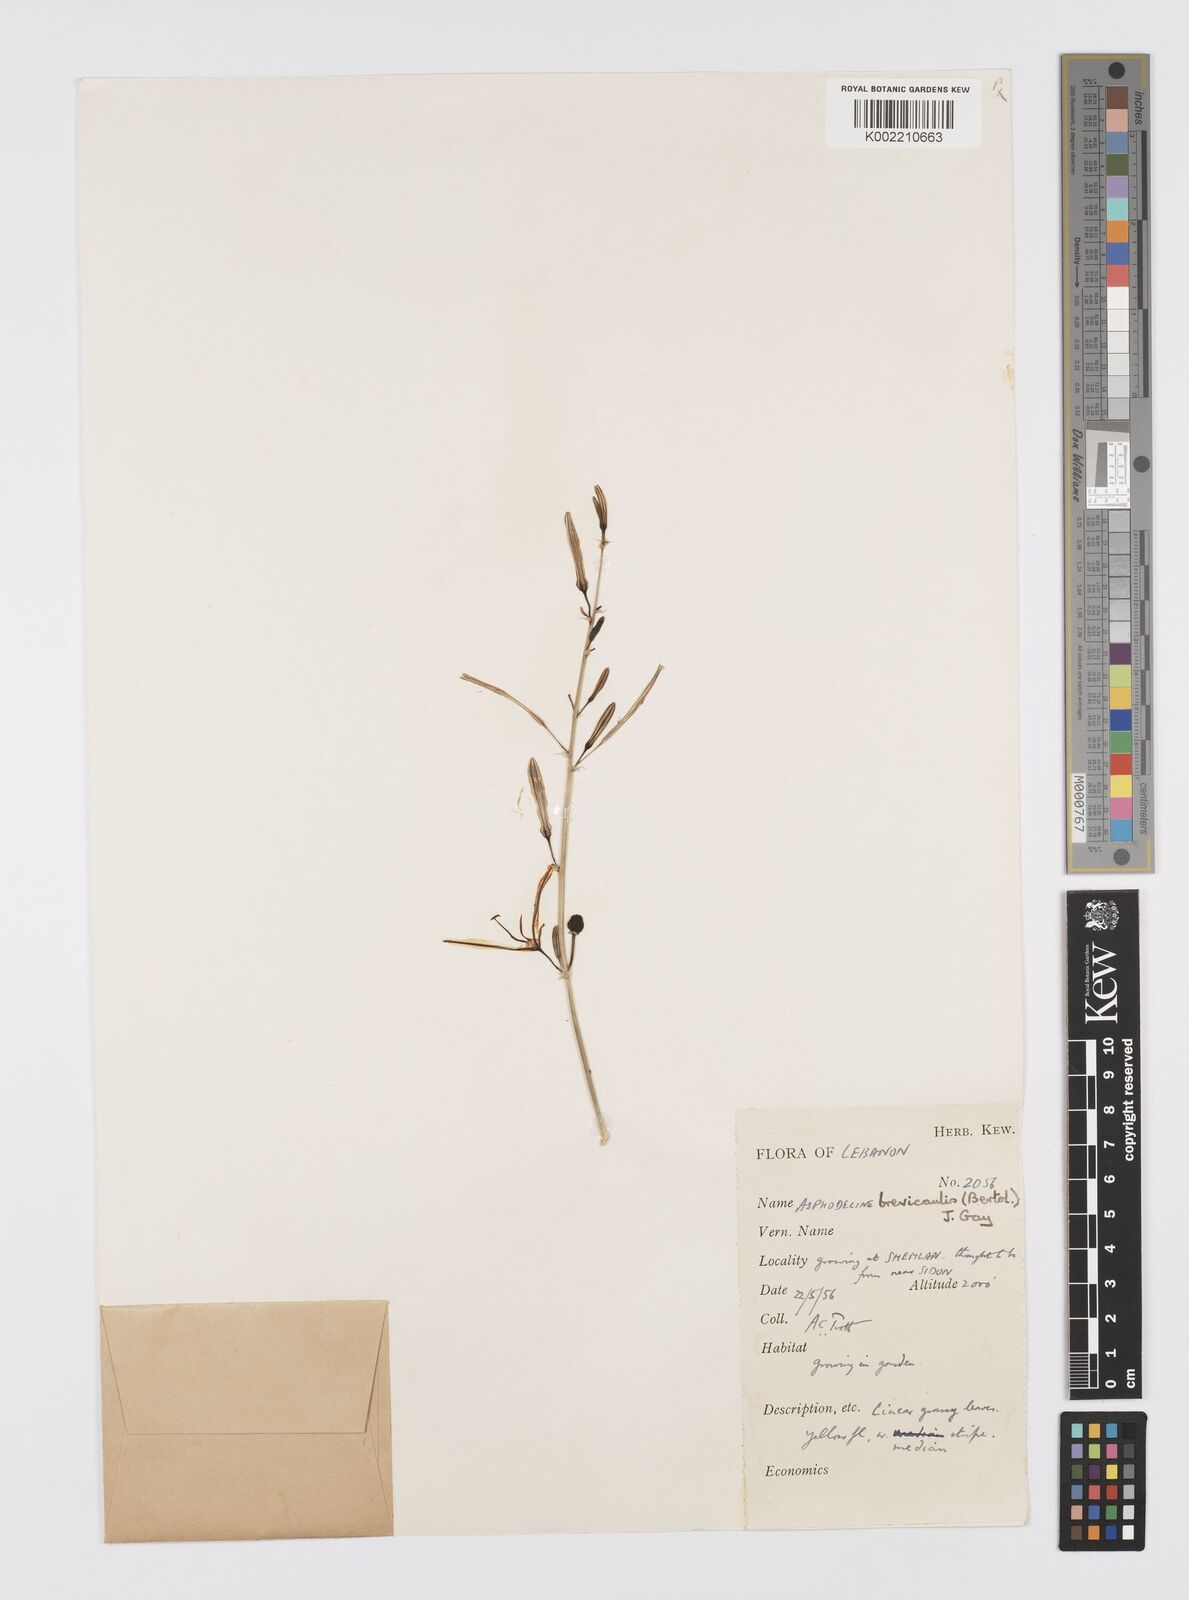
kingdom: Plantae
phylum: Tracheophyta
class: Liliopsida
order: Asparagales
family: Asphodelaceae
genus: Asphodeline
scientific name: Asphodeline brevicaulis
